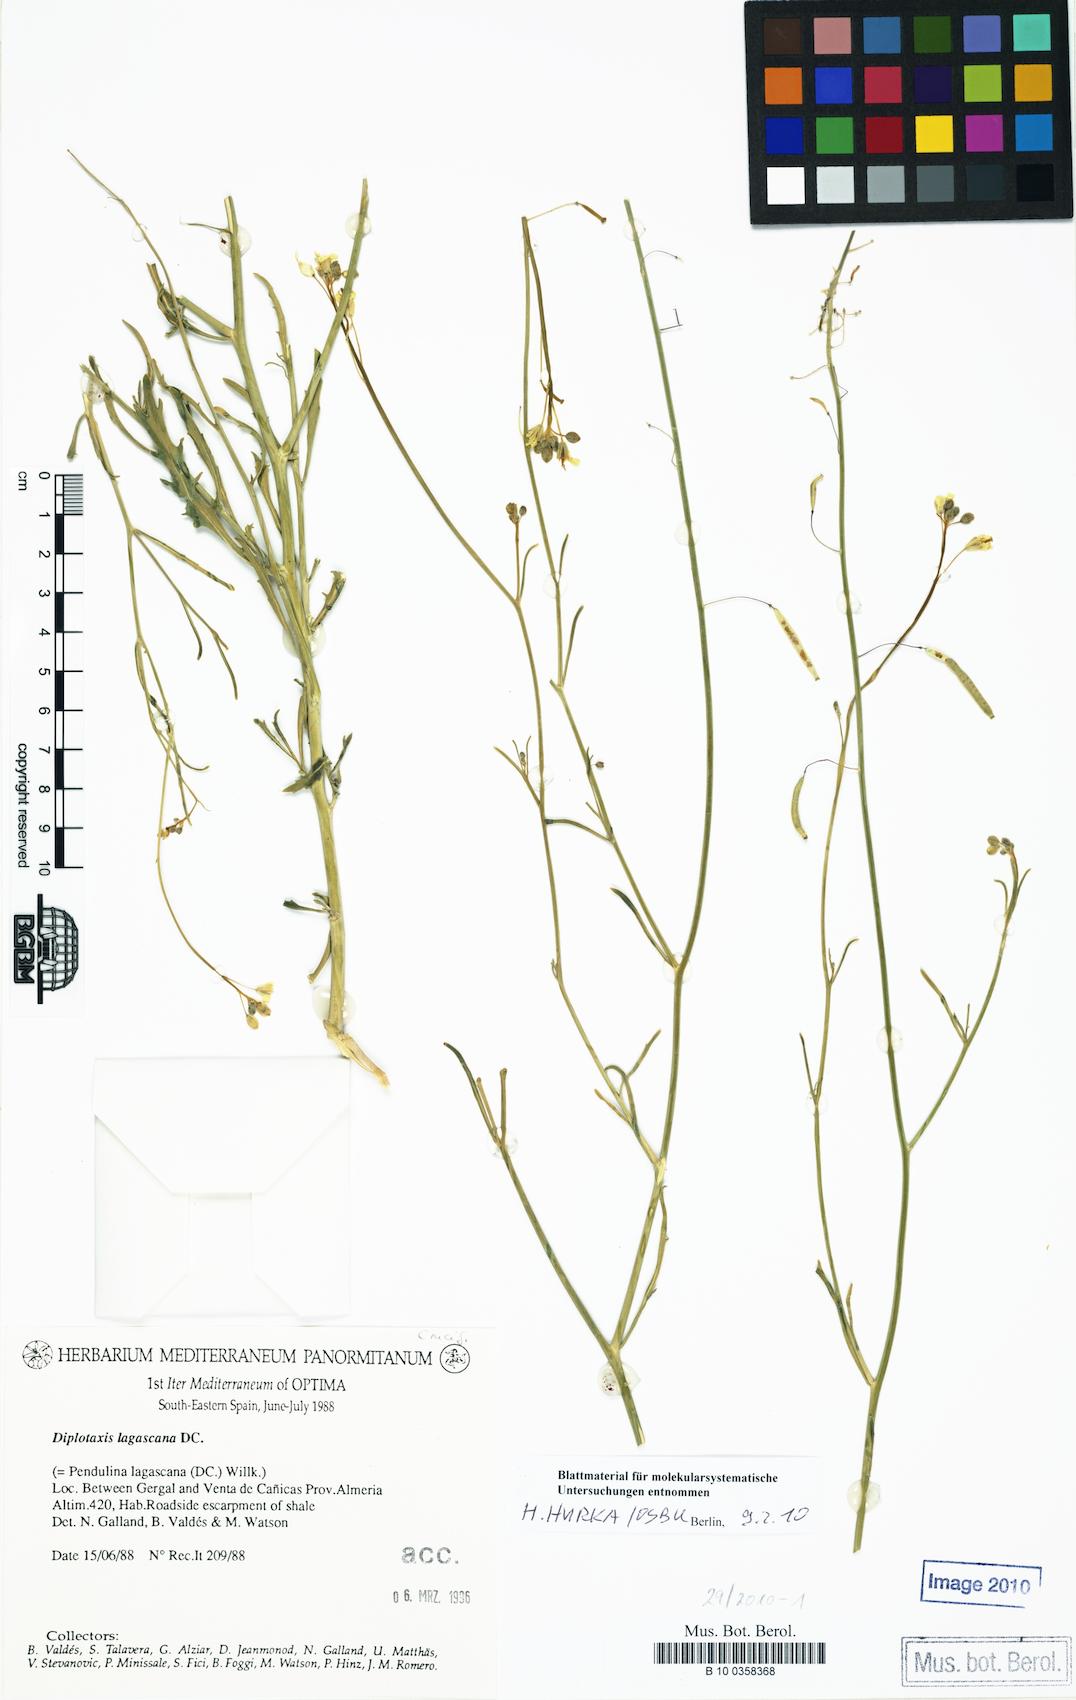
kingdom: Plantae
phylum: Tracheophyta
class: Magnoliopsida
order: Brassicales
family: Brassicaceae
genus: Diplotaxis
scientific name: Diplotaxis lagascana
